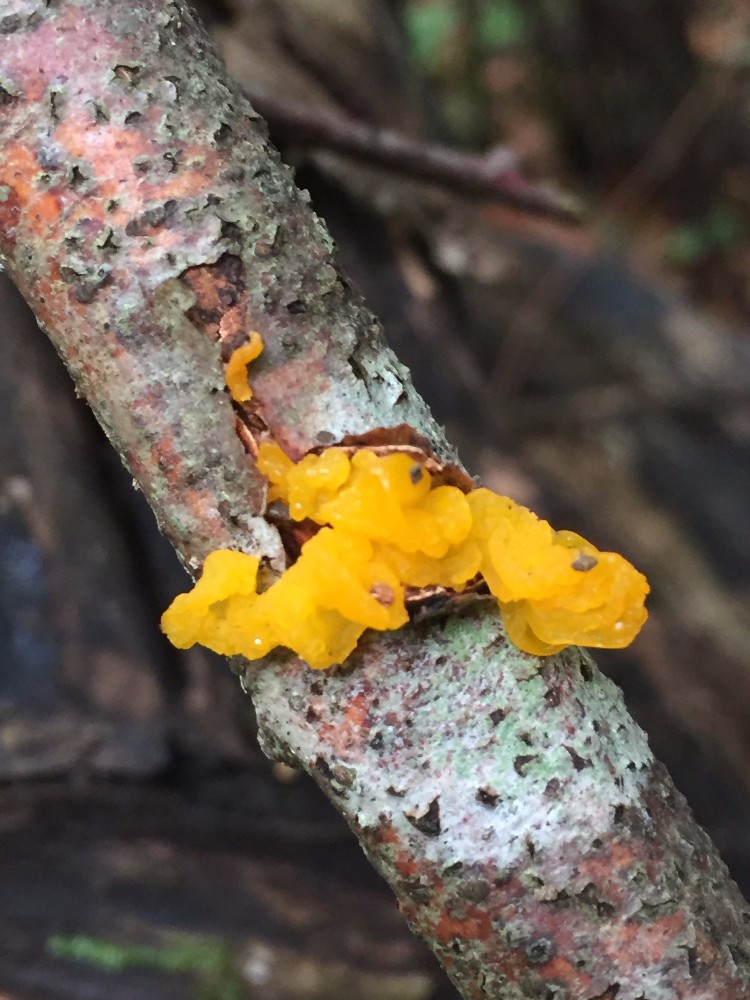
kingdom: Fungi
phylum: Basidiomycota
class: Tremellomycetes
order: Tremellales
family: Tremellaceae
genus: Tremella
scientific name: Tremella mesenterica
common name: gul bævresvamp
